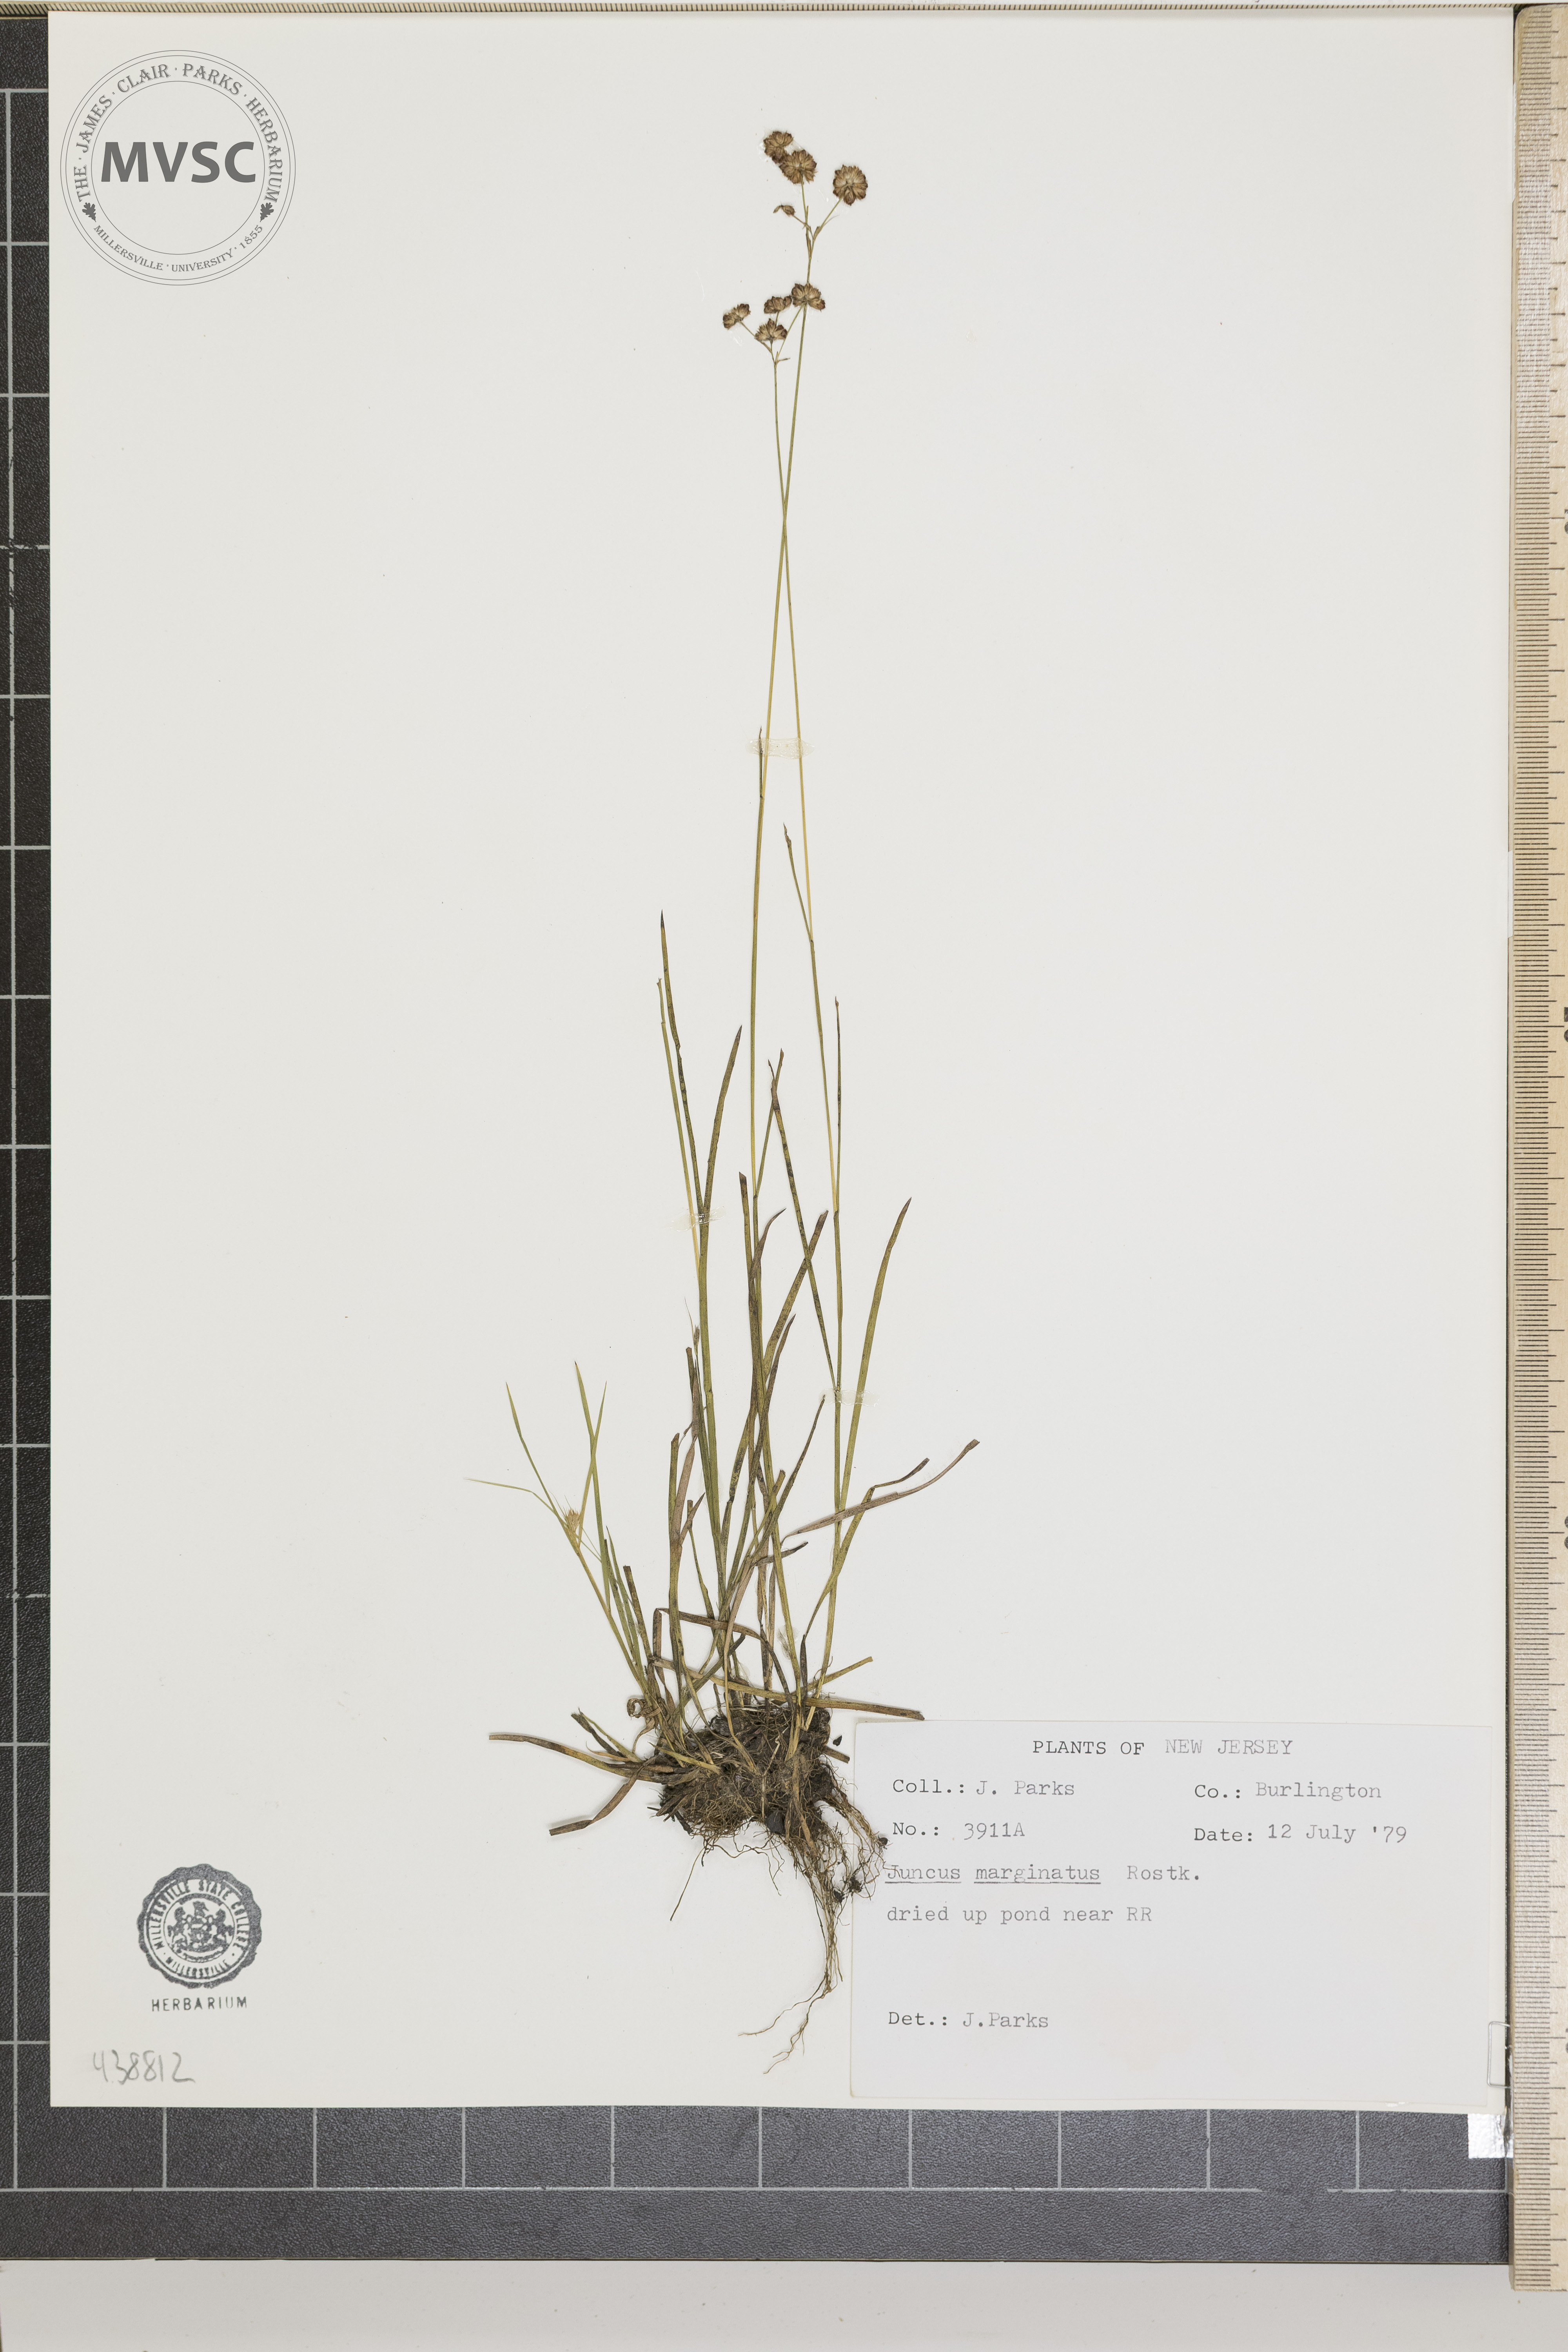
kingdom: Plantae
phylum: Tracheophyta
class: Liliopsida
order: Poales
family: Juncaceae
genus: Juncus
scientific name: Juncus marginatus
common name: Grass-leaf rush
